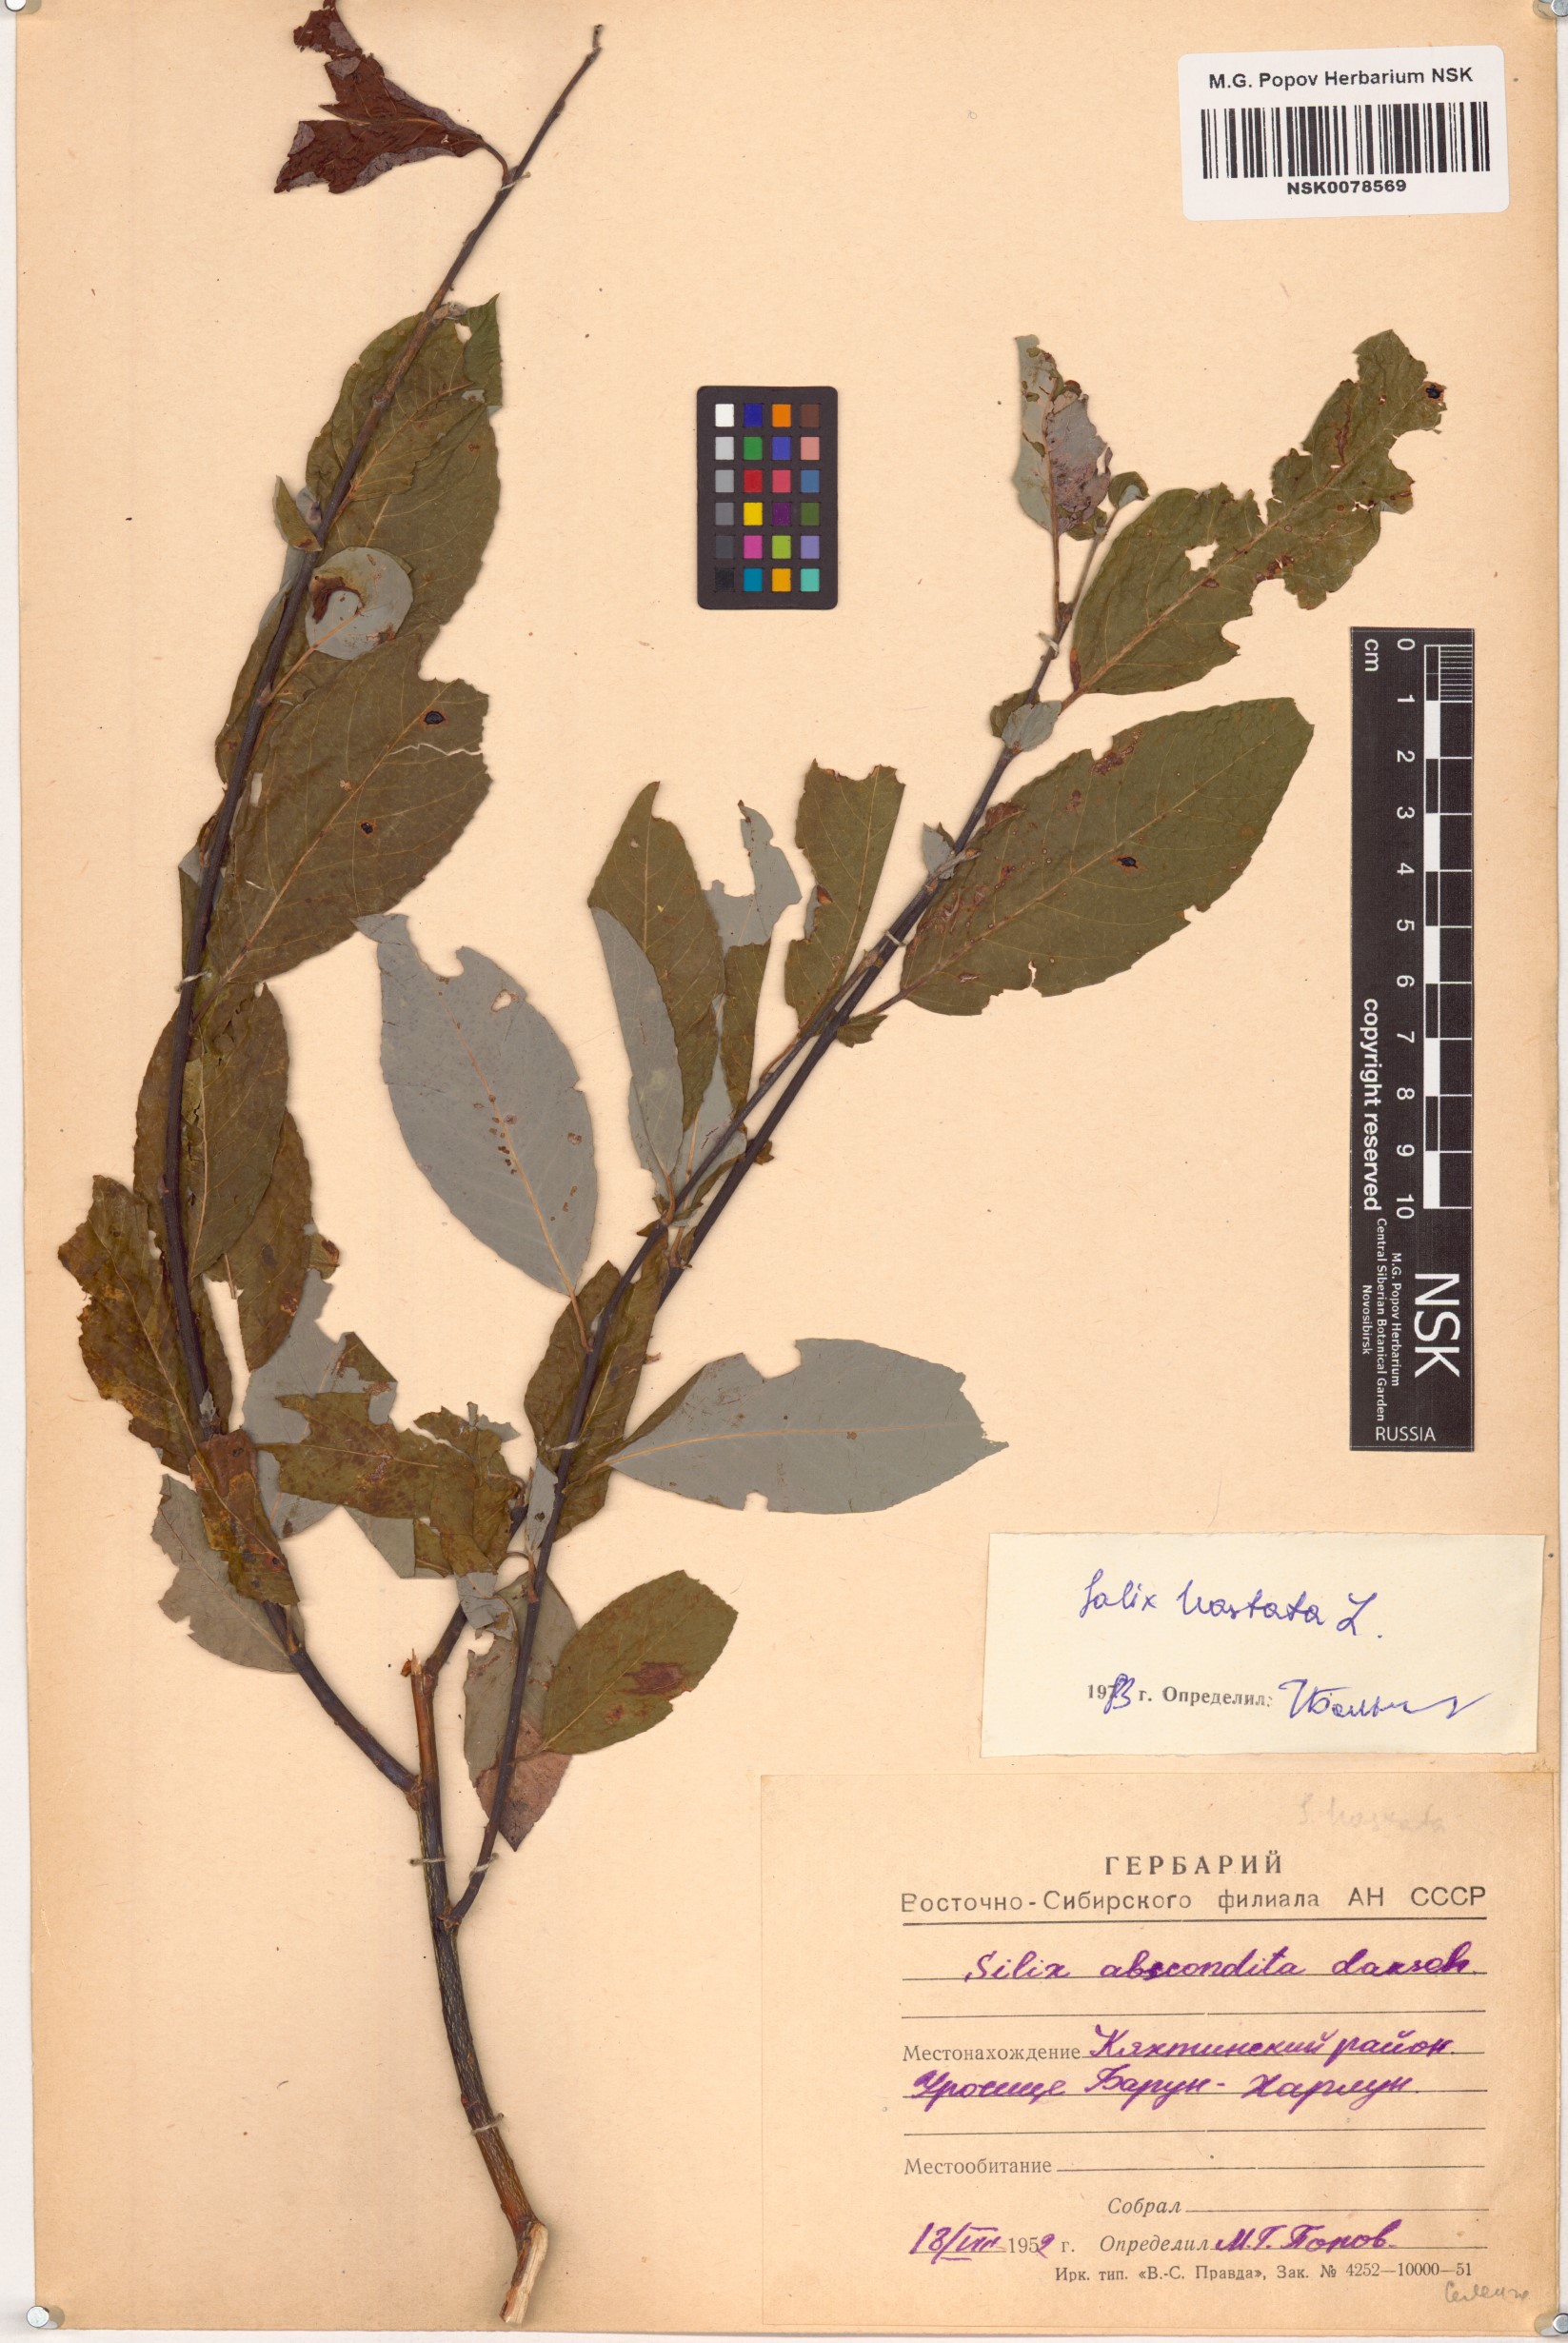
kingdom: Plantae
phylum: Tracheophyta
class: Magnoliopsida
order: Malpighiales
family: Salicaceae
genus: Salix
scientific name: Salix hastata
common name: Halberd willow
